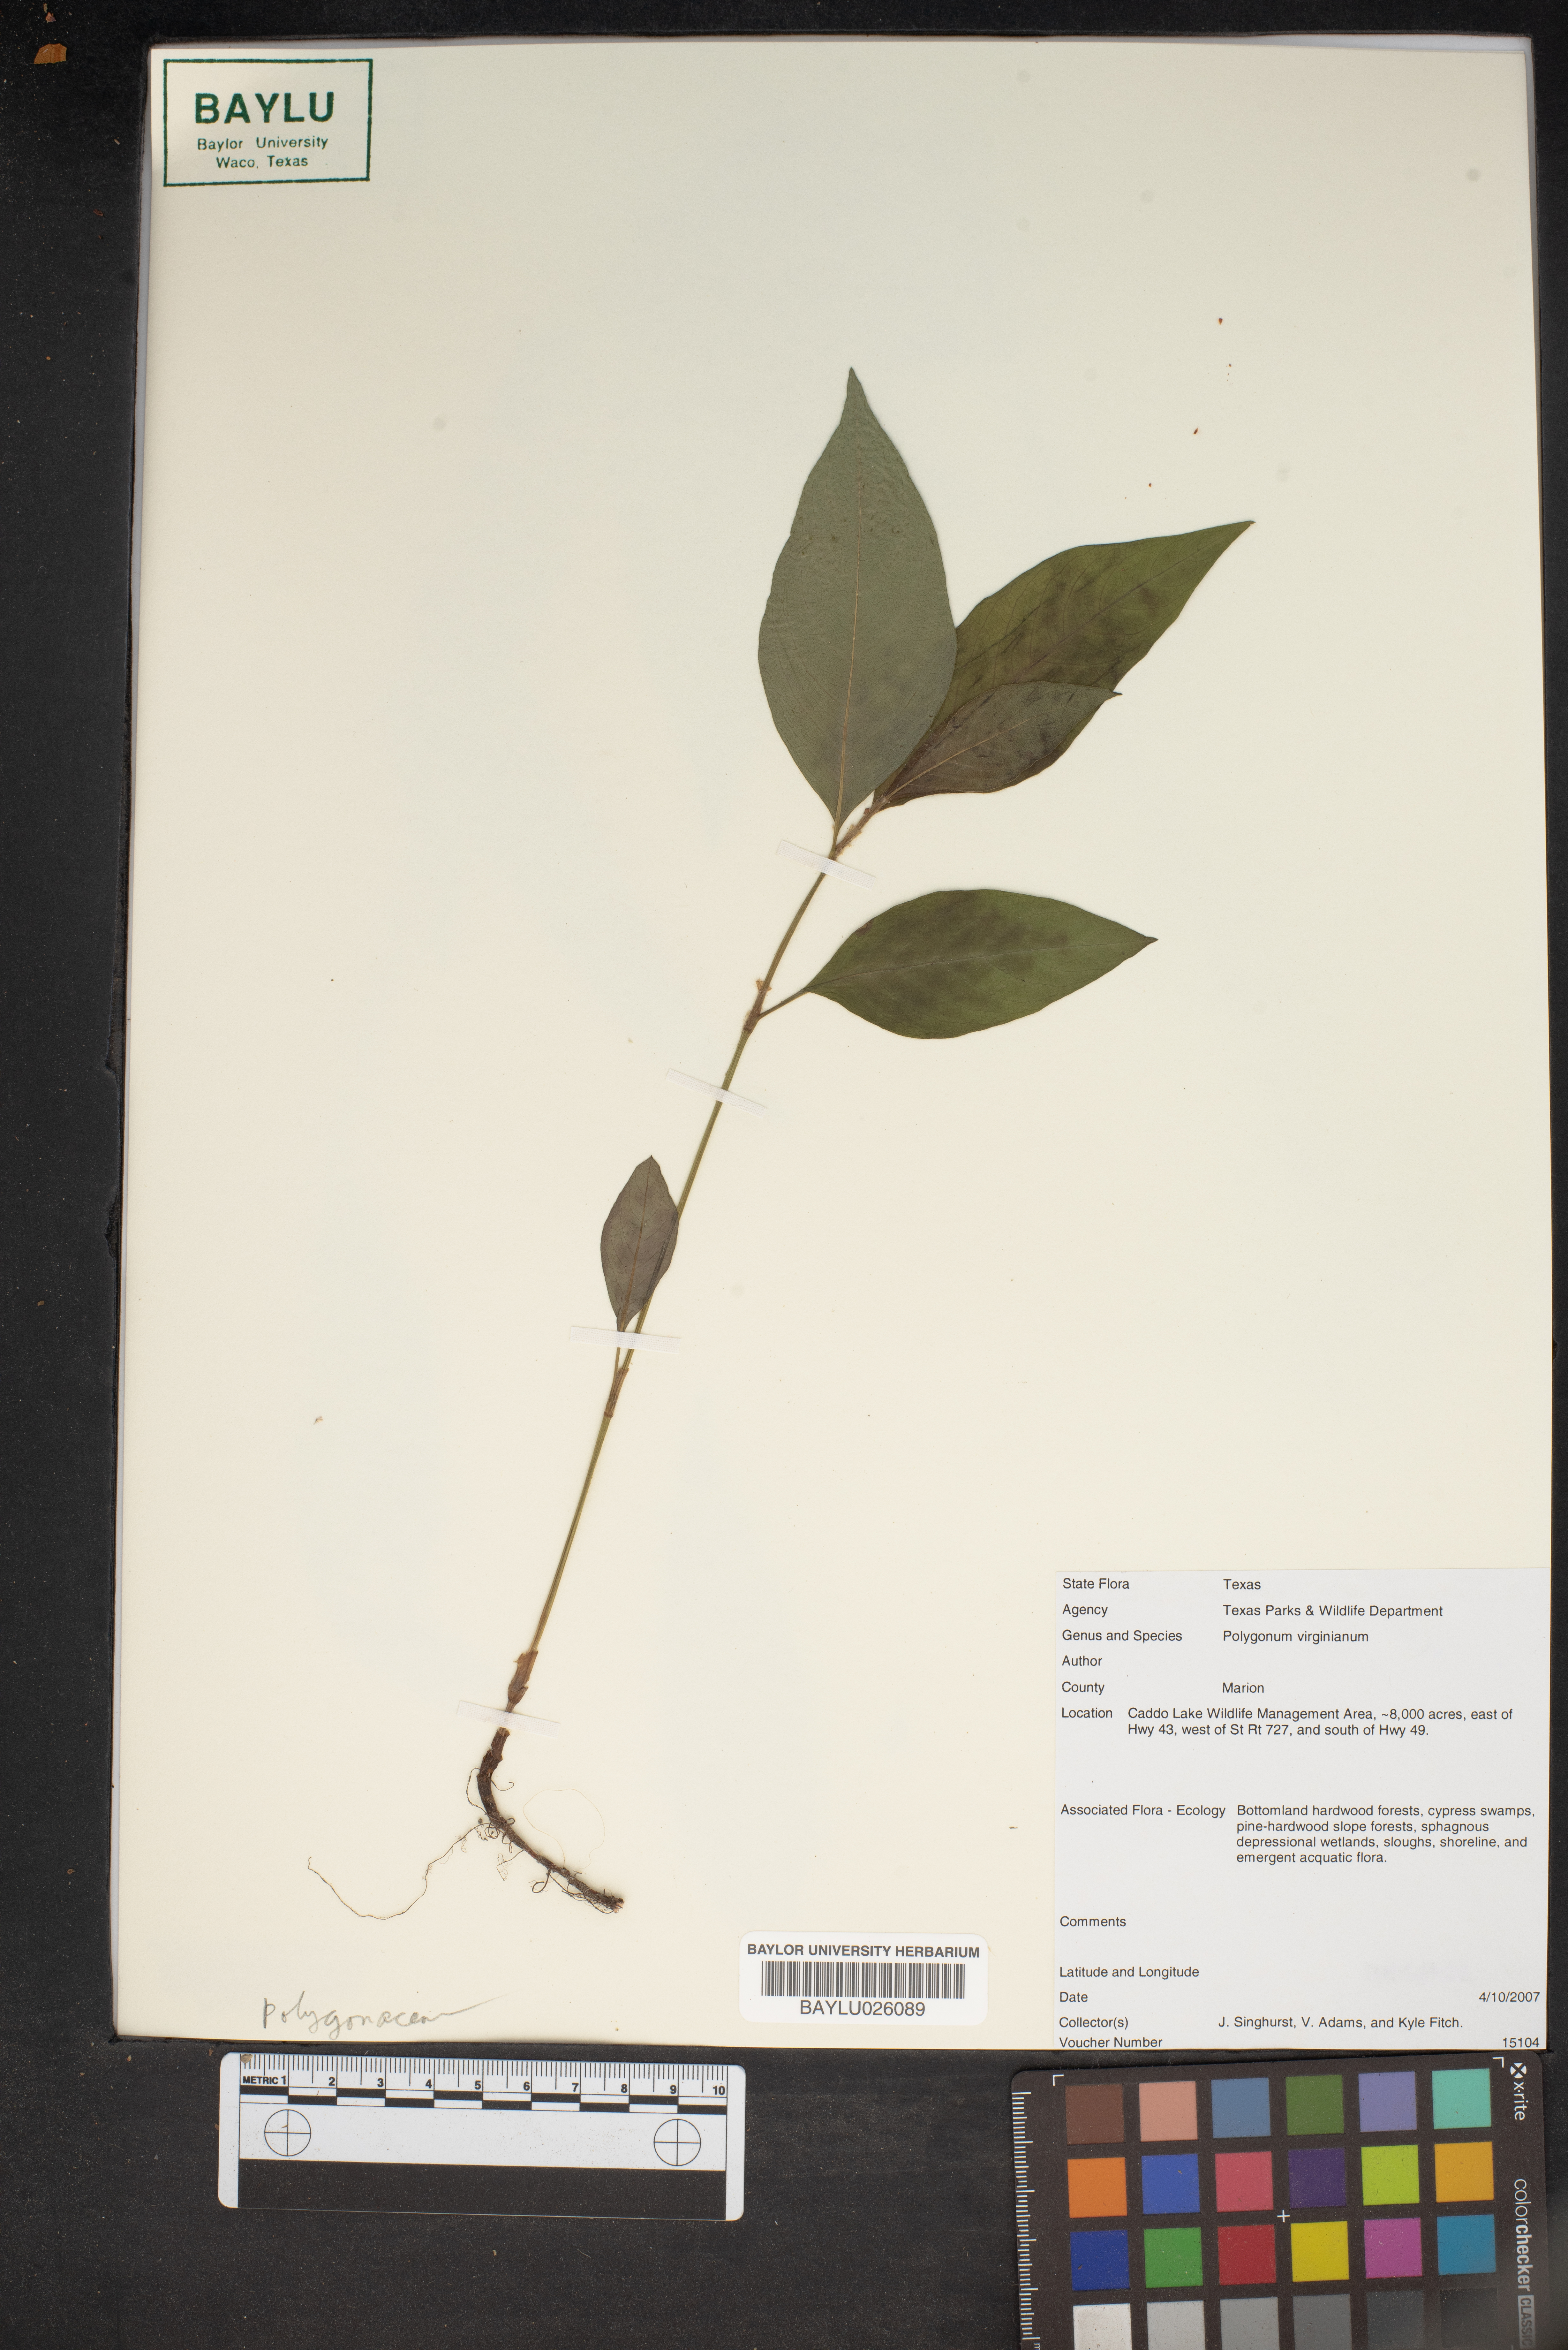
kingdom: Plantae
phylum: Tracheophyta
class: Magnoliopsida
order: Caryophyllales
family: Polygonaceae
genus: Persicaria
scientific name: Persicaria virginiana
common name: Jumpseed
